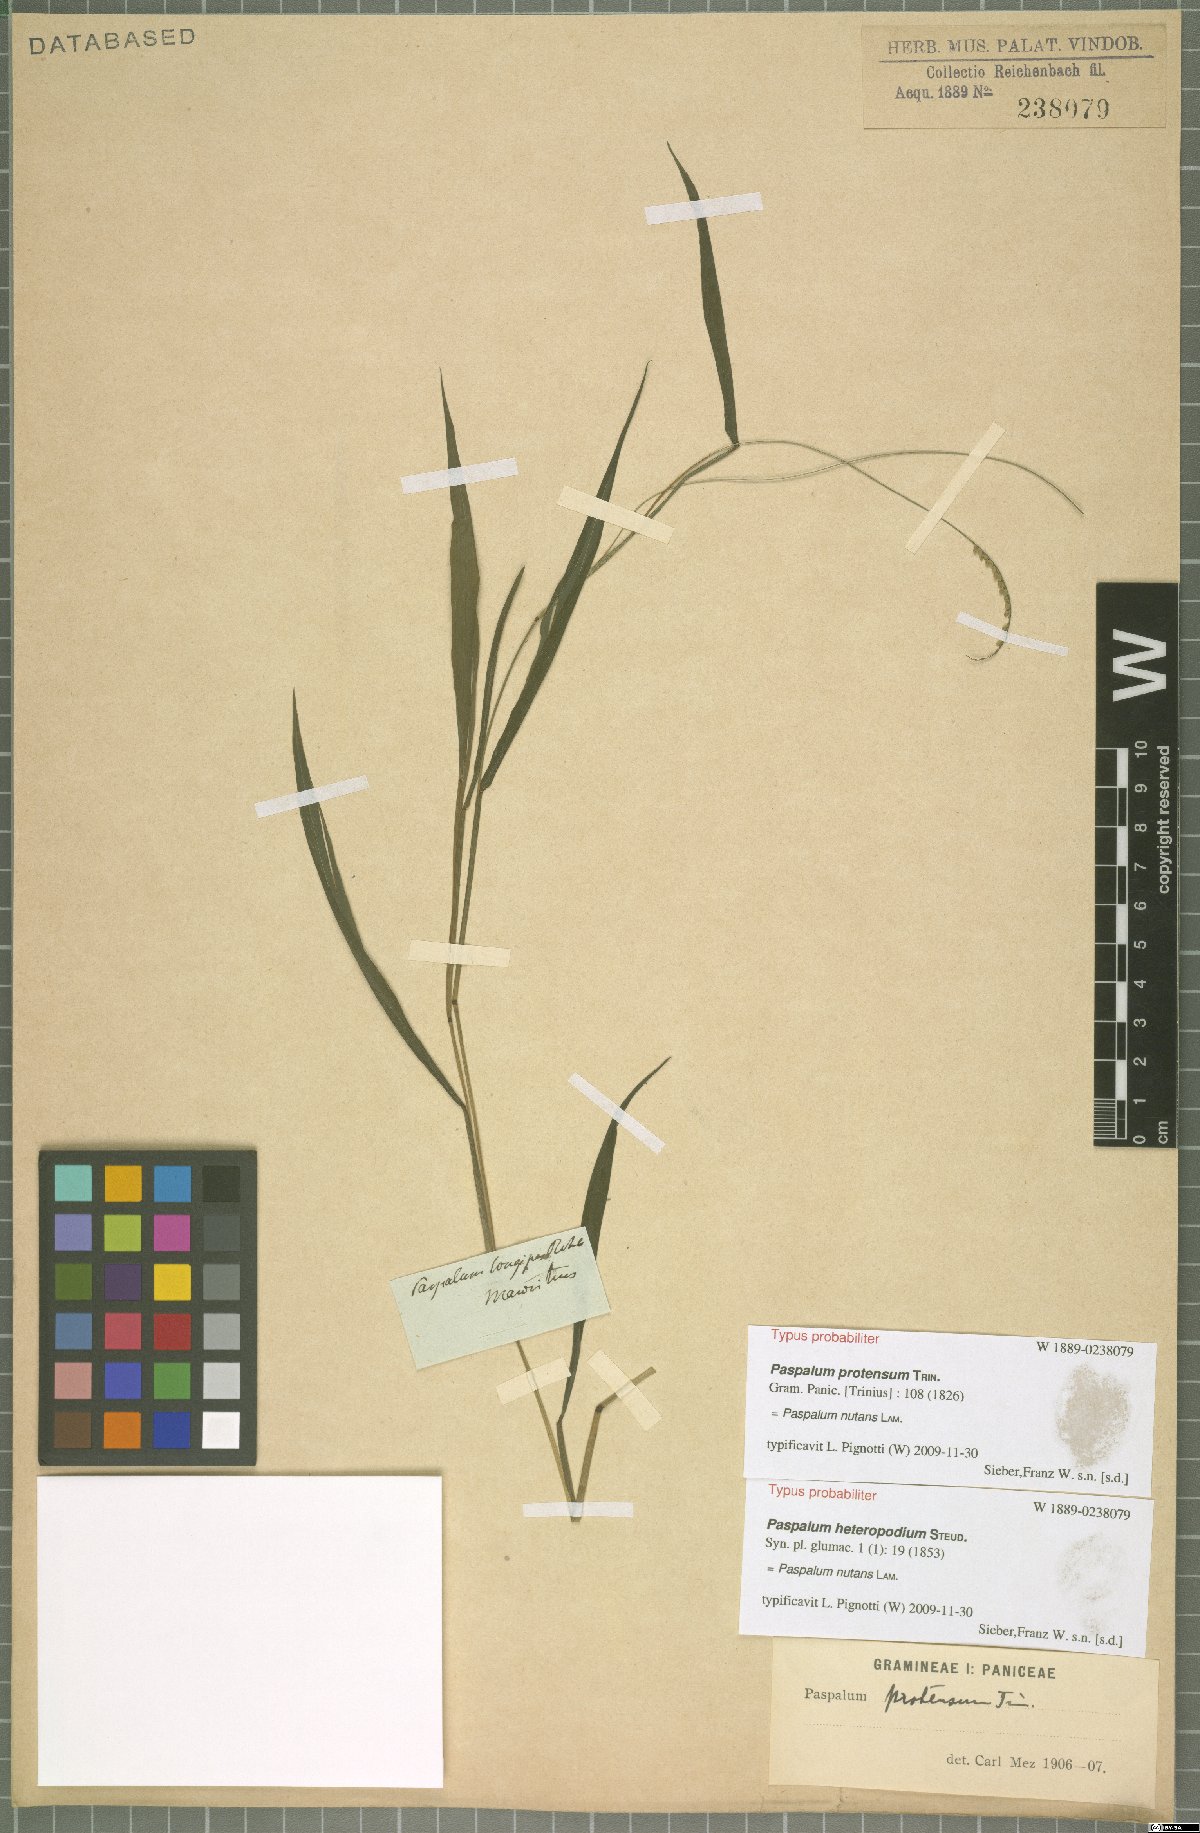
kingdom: Plantae
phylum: Tracheophyta
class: Liliopsida
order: Poales
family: Poaceae
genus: Paspalum
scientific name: Paspalum nutans
